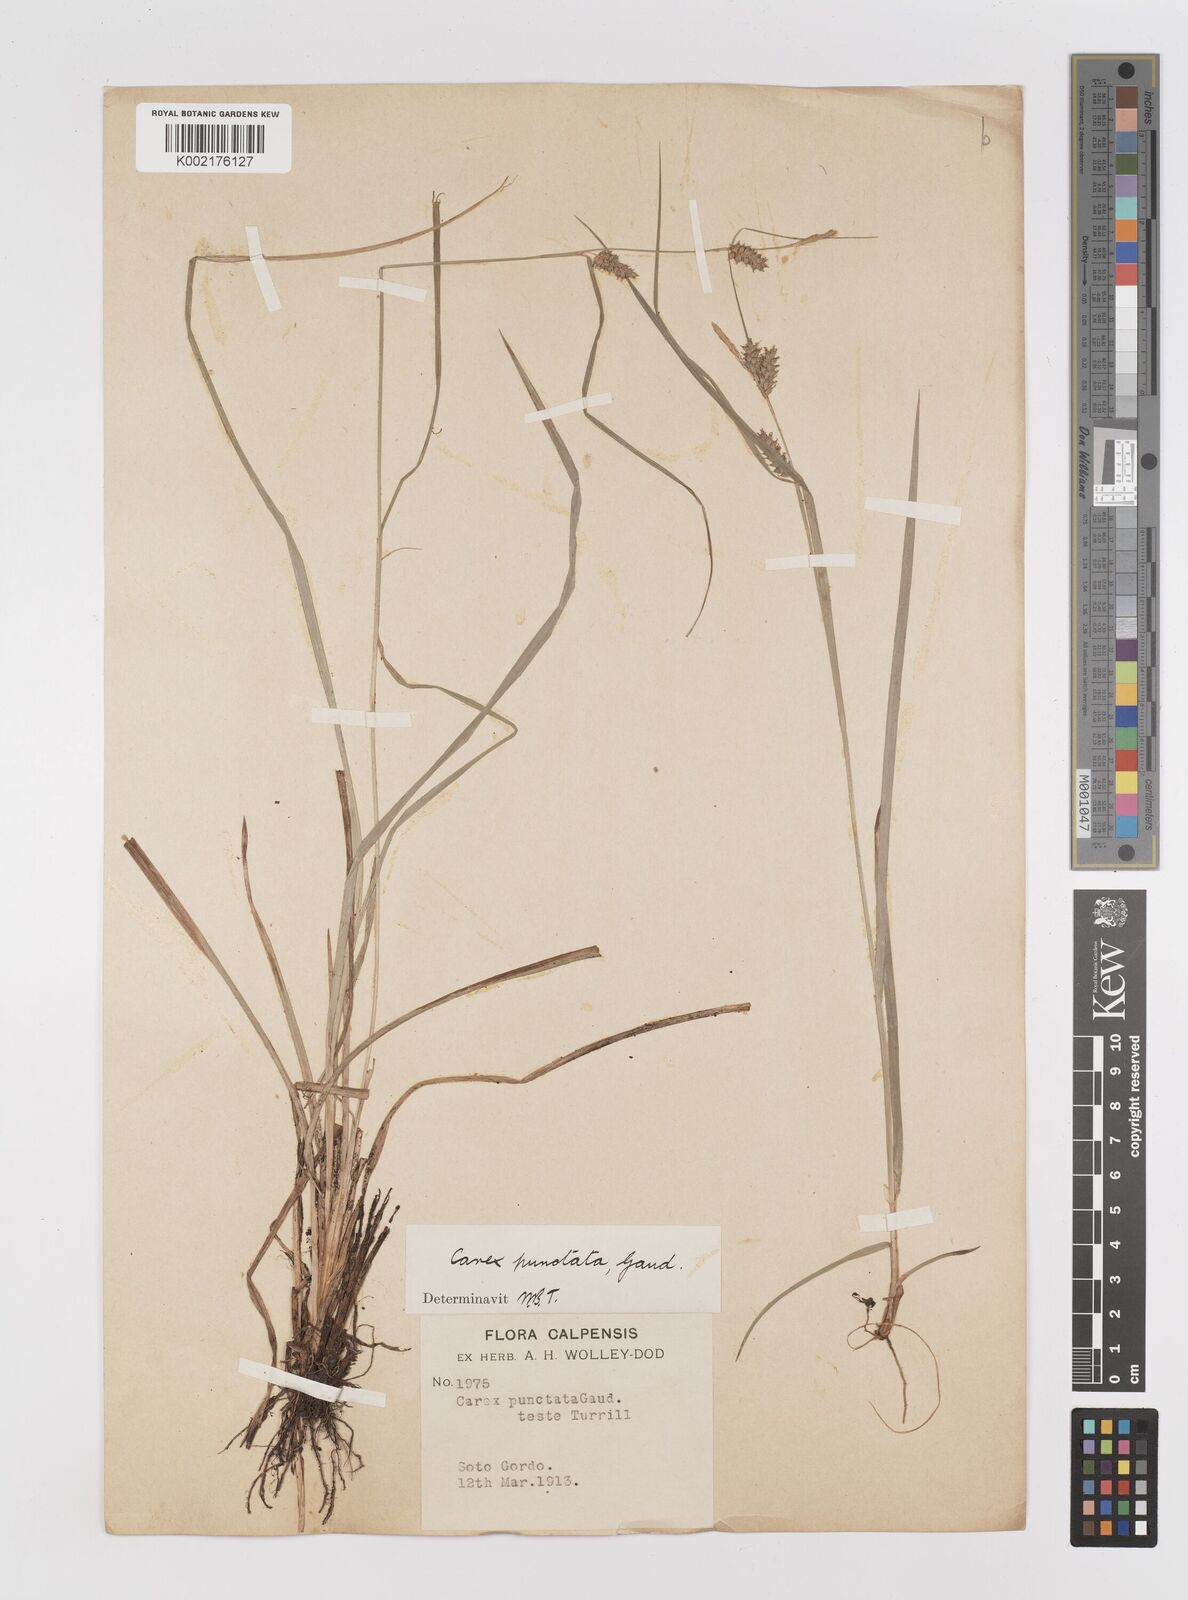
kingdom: Plantae
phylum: Tracheophyta
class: Liliopsida
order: Poales
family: Cyperaceae
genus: Carex
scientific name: Carex punctata
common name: Dotted sedge
